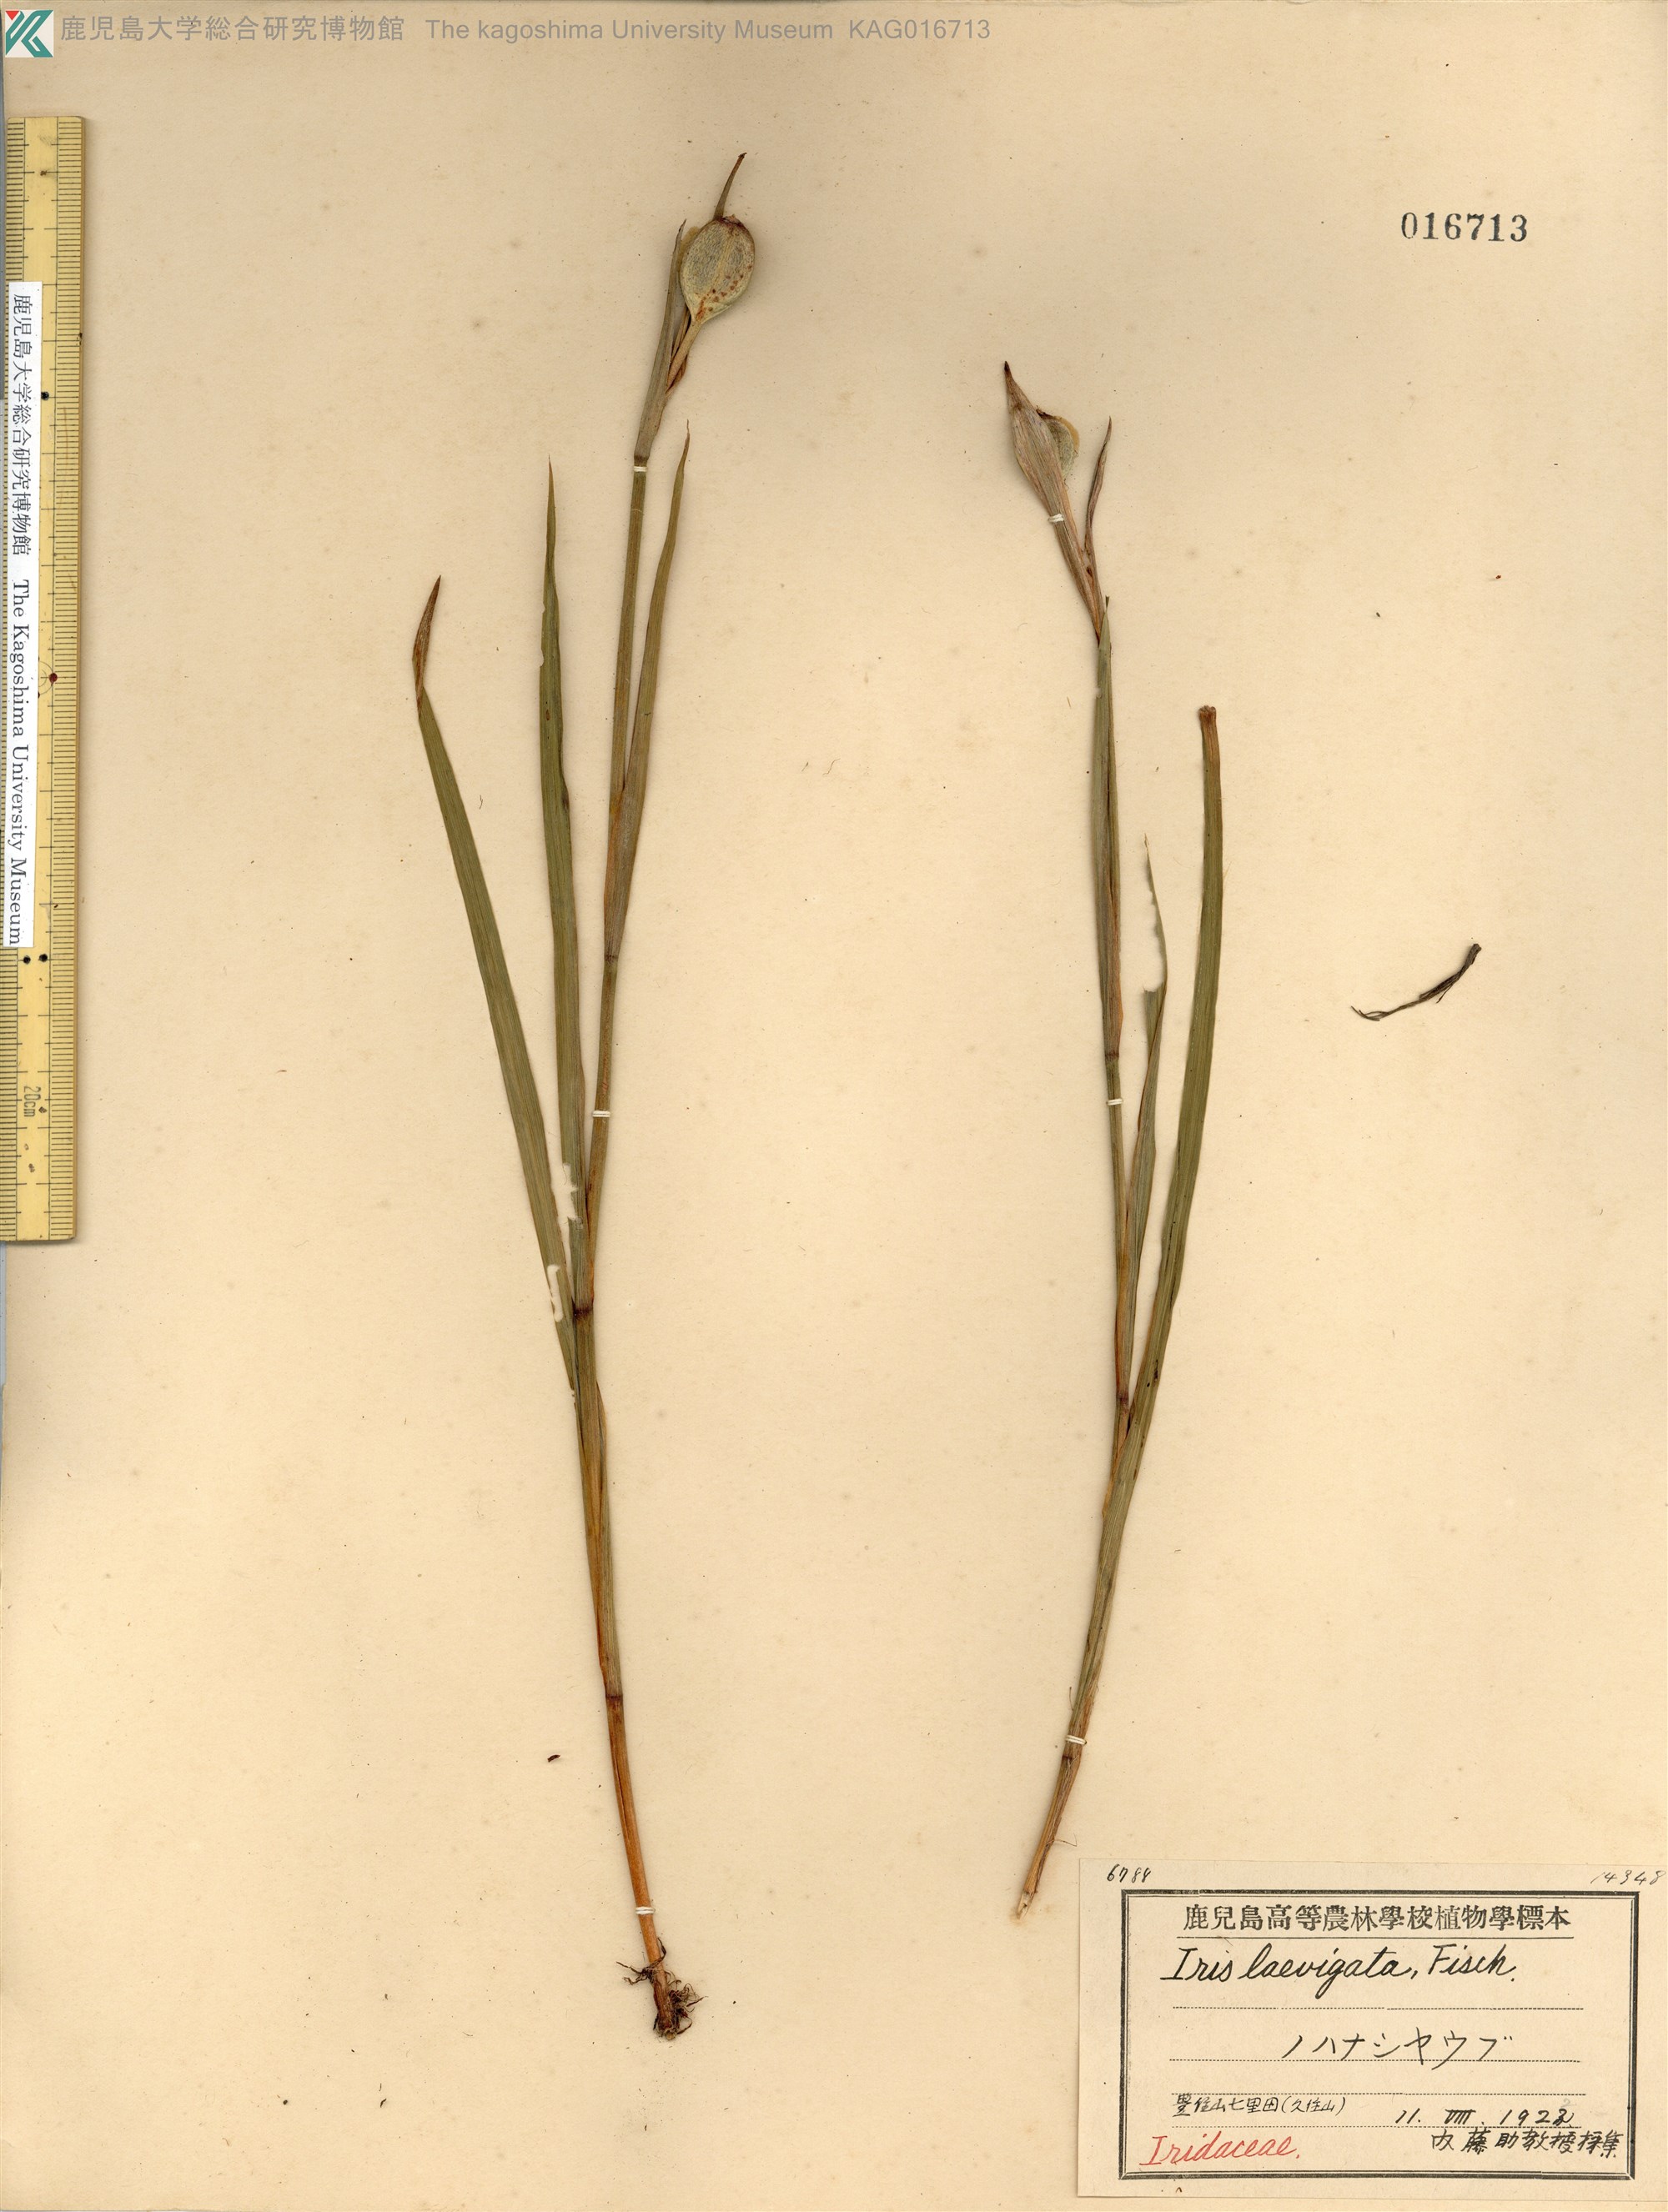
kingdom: Plantae
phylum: Tracheophyta
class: Liliopsida
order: Asparagales
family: Iridaceae
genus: Iris
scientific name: Iris ensata
